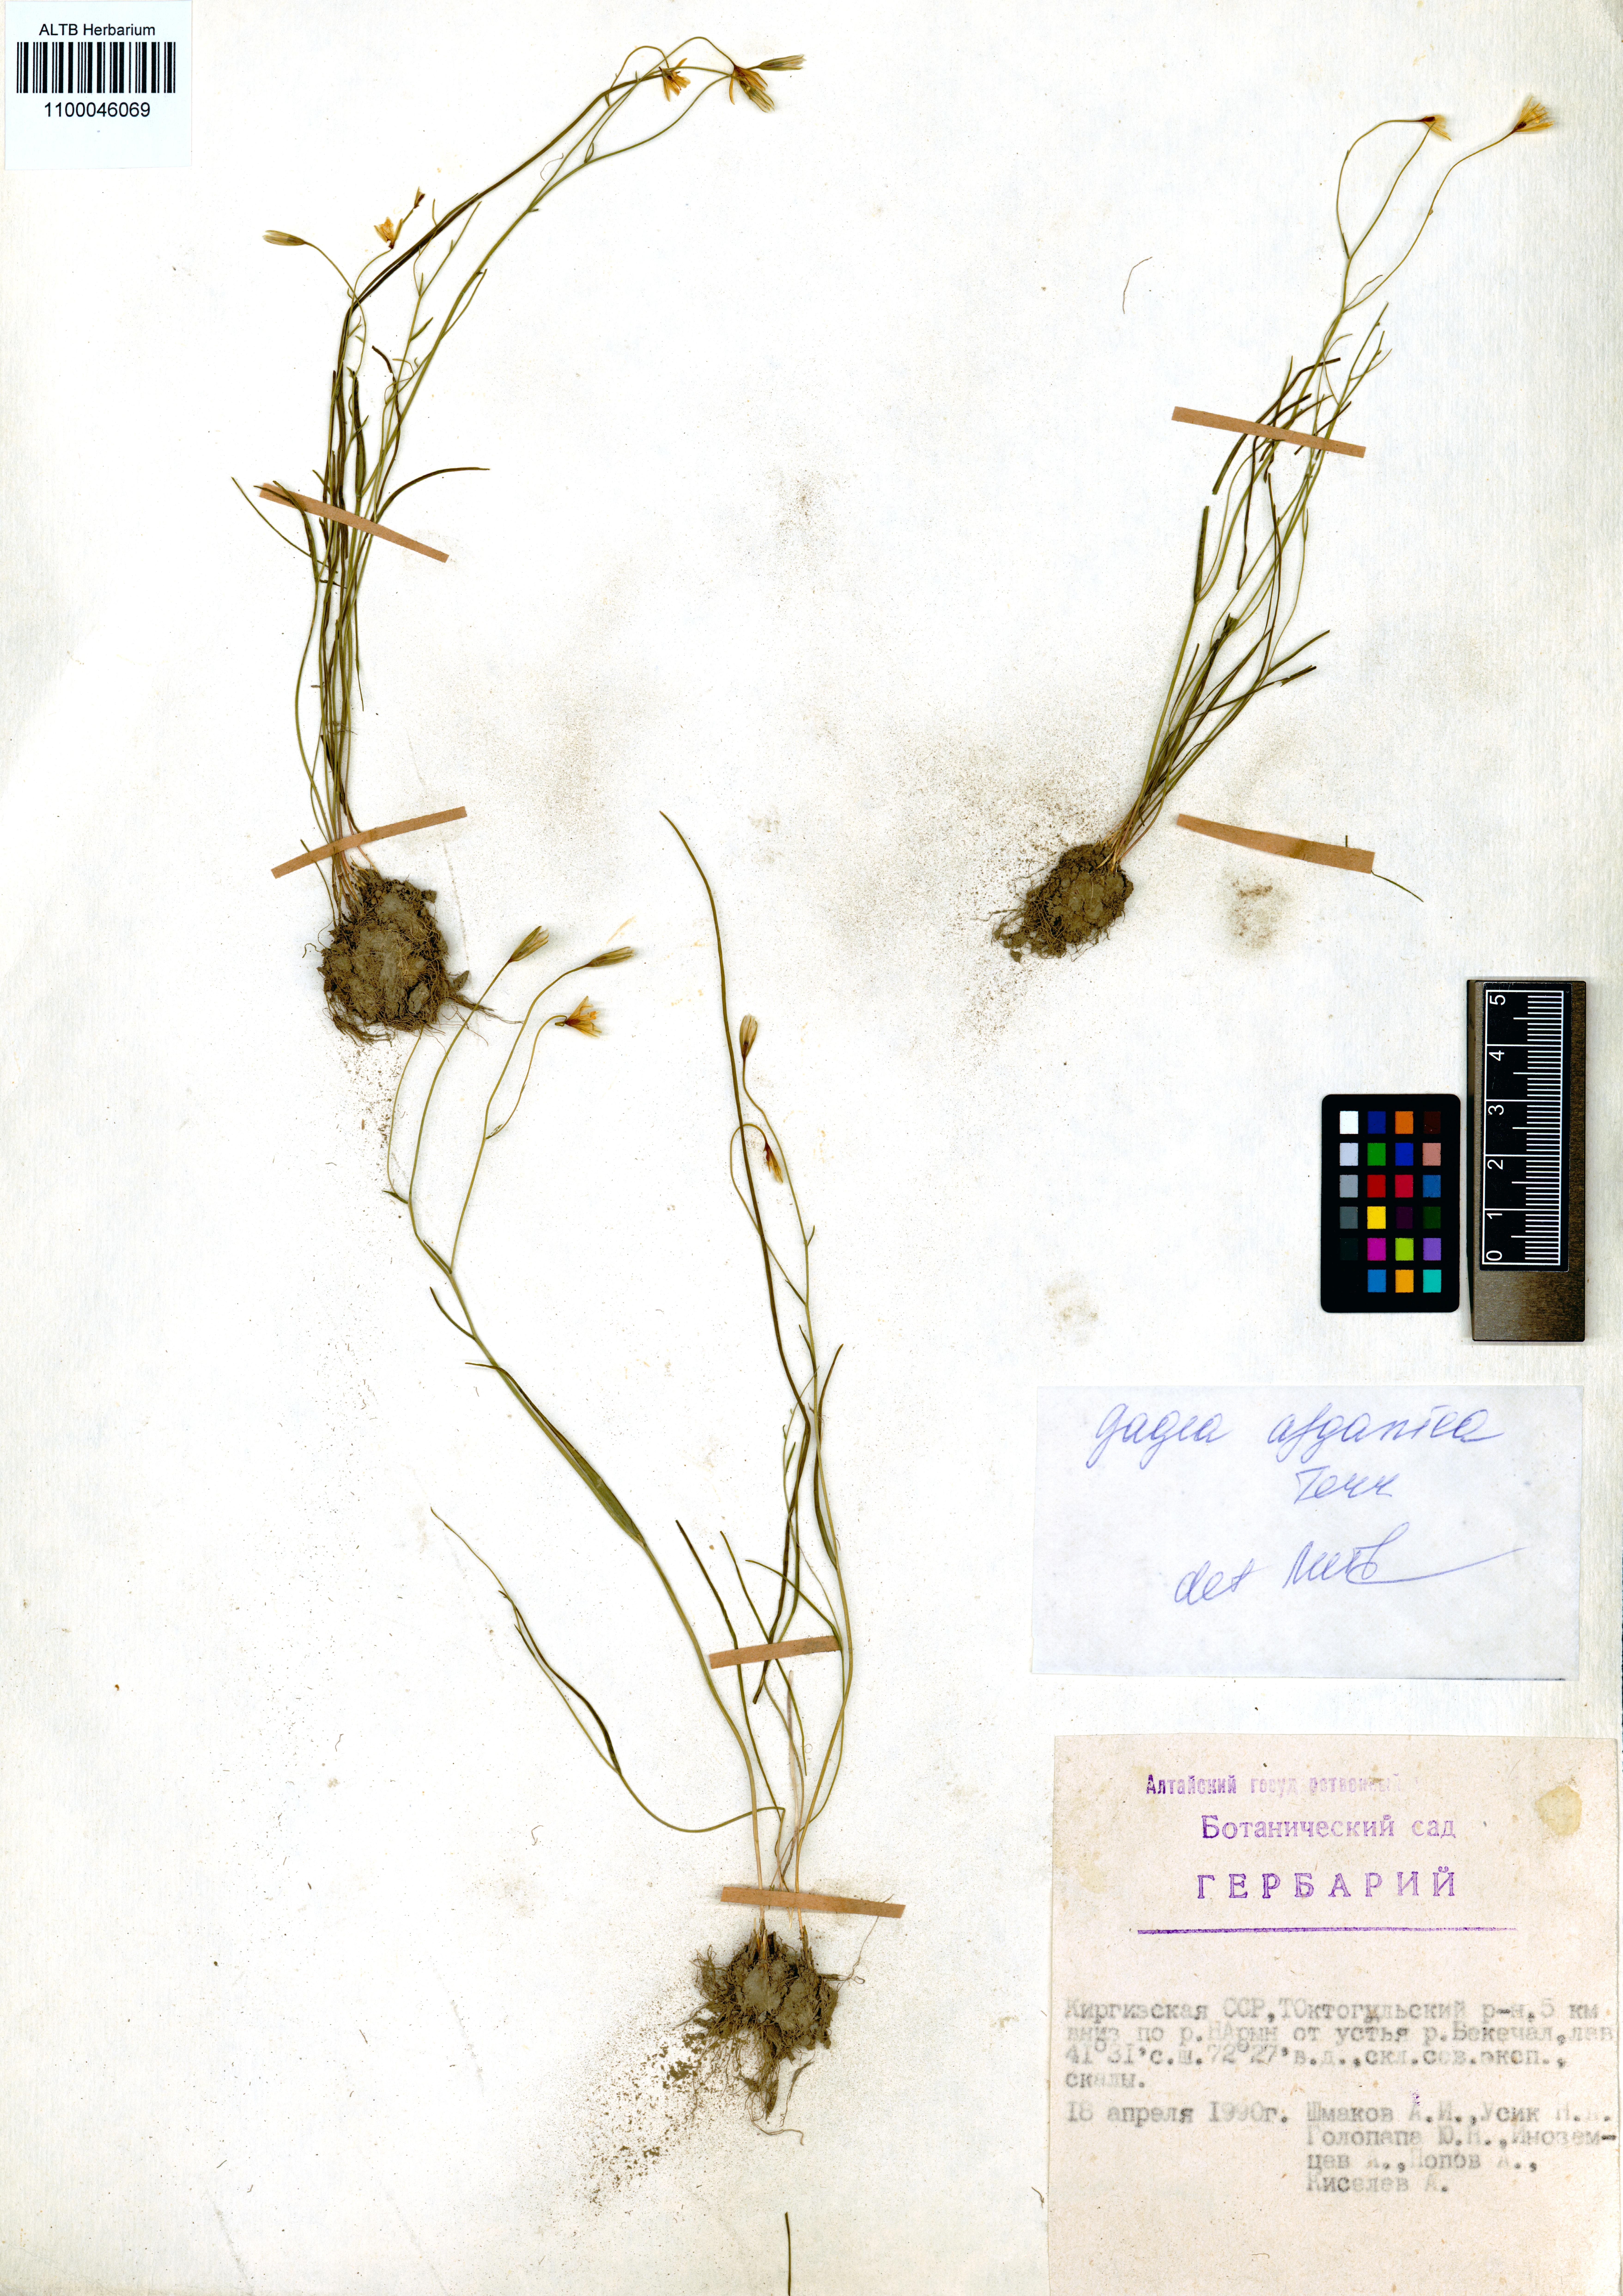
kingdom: Plantae
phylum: Tracheophyta
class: Liliopsida
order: Liliales
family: Liliaceae
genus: Gagea
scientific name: Gagea afghanica
